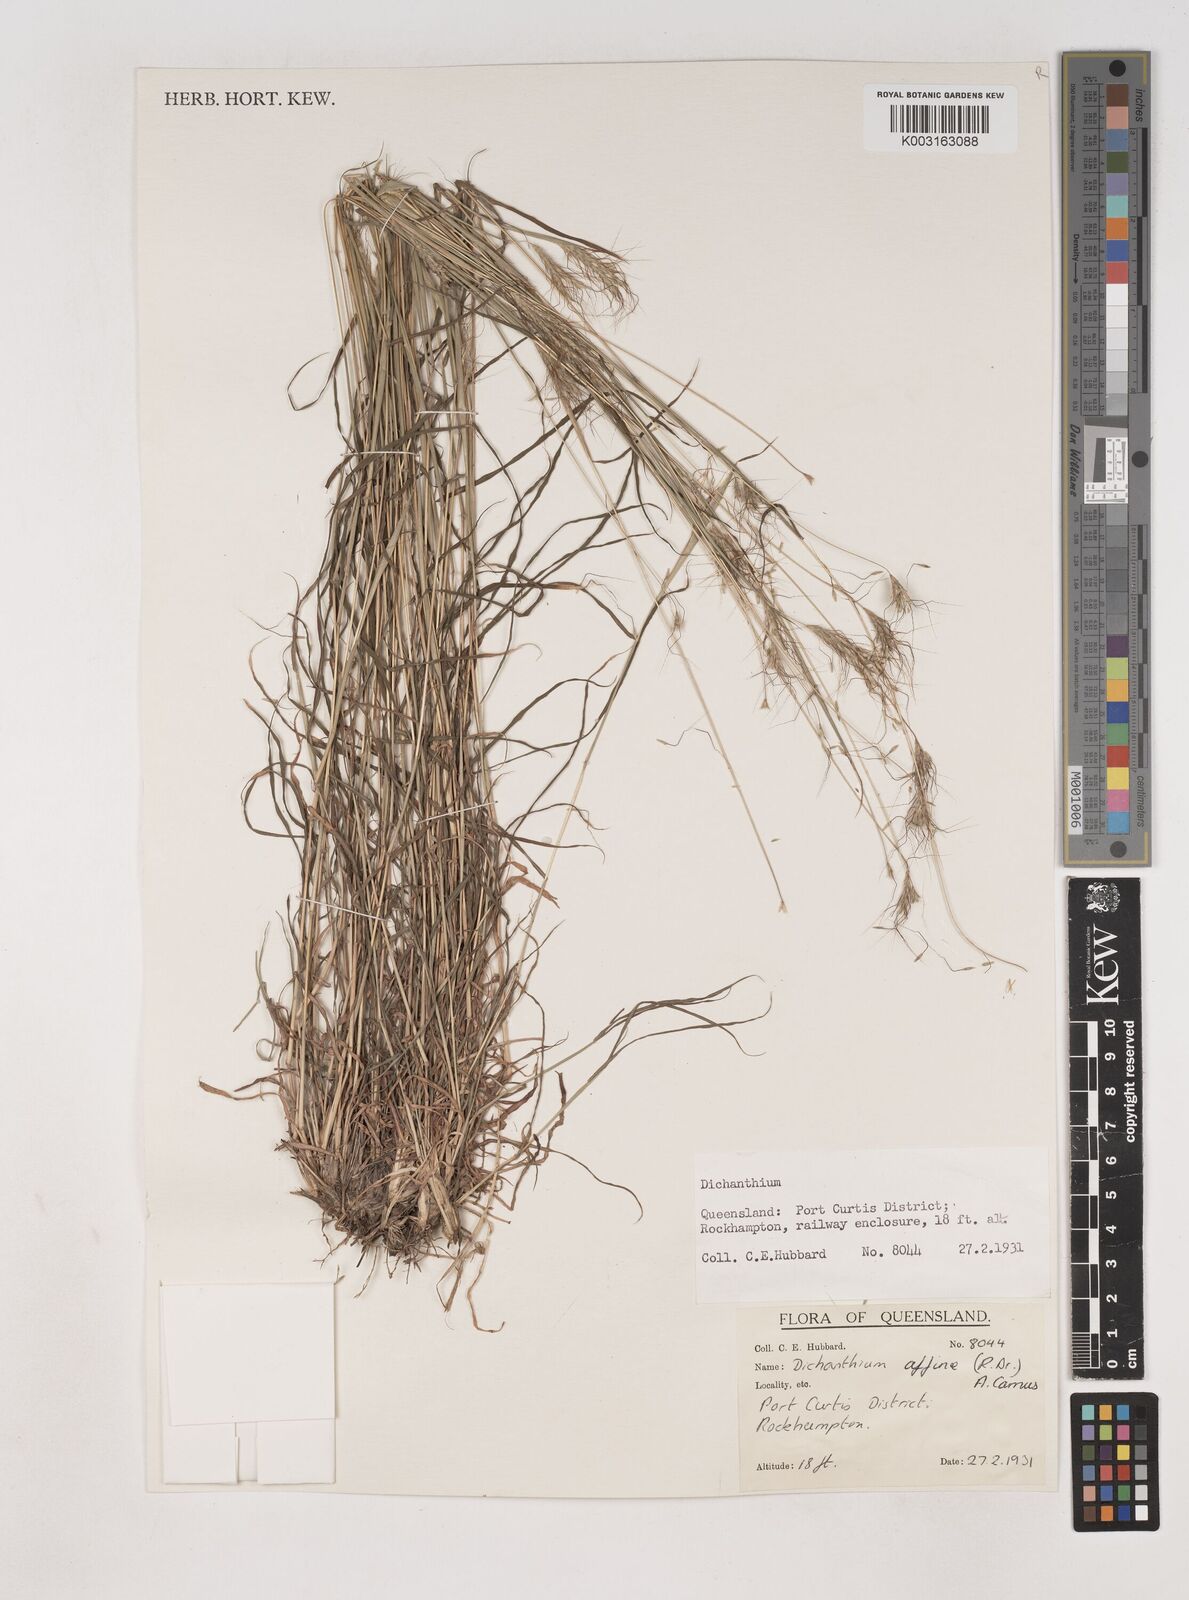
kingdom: Plantae
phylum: Tracheophyta
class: Liliopsida
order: Poales
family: Poaceae
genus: Dichanthium
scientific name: Dichanthium sericeum
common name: Silky bluestem
